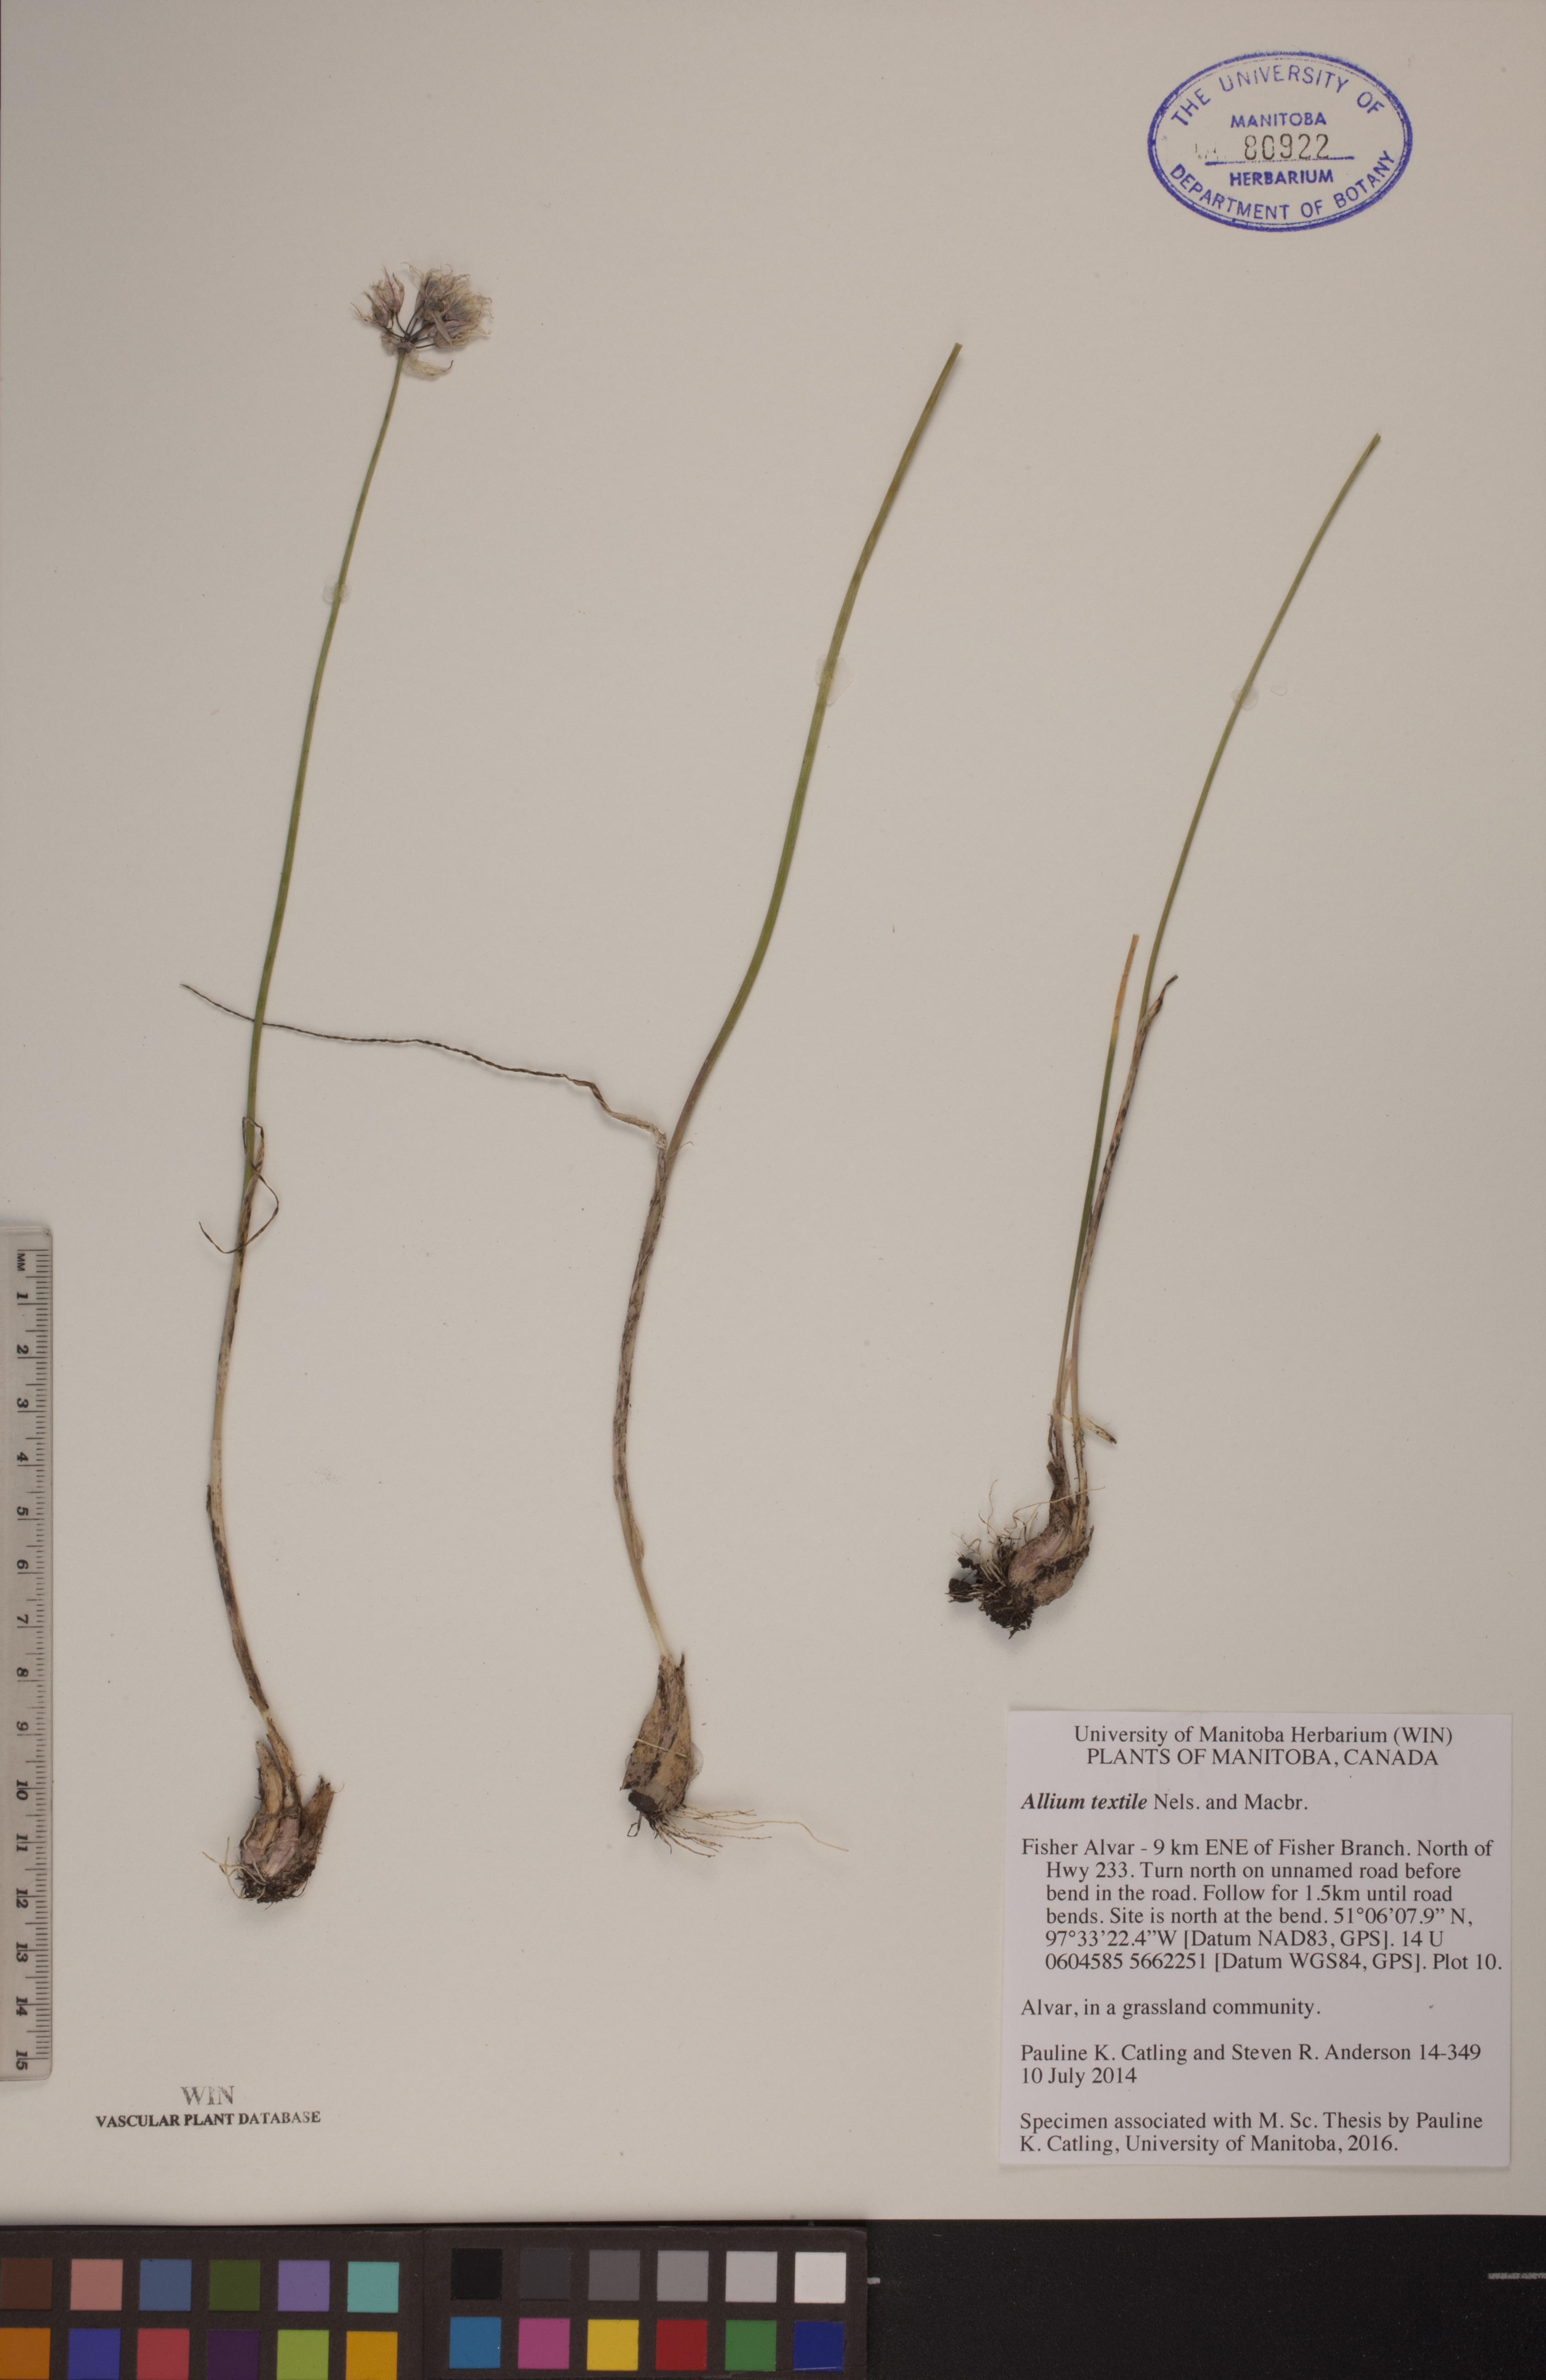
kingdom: Plantae
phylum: Tracheophyta
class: Liliopsida
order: Asparagales
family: Amaryllidaceae
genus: Allium
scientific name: Allium textile
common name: Prairie onion
